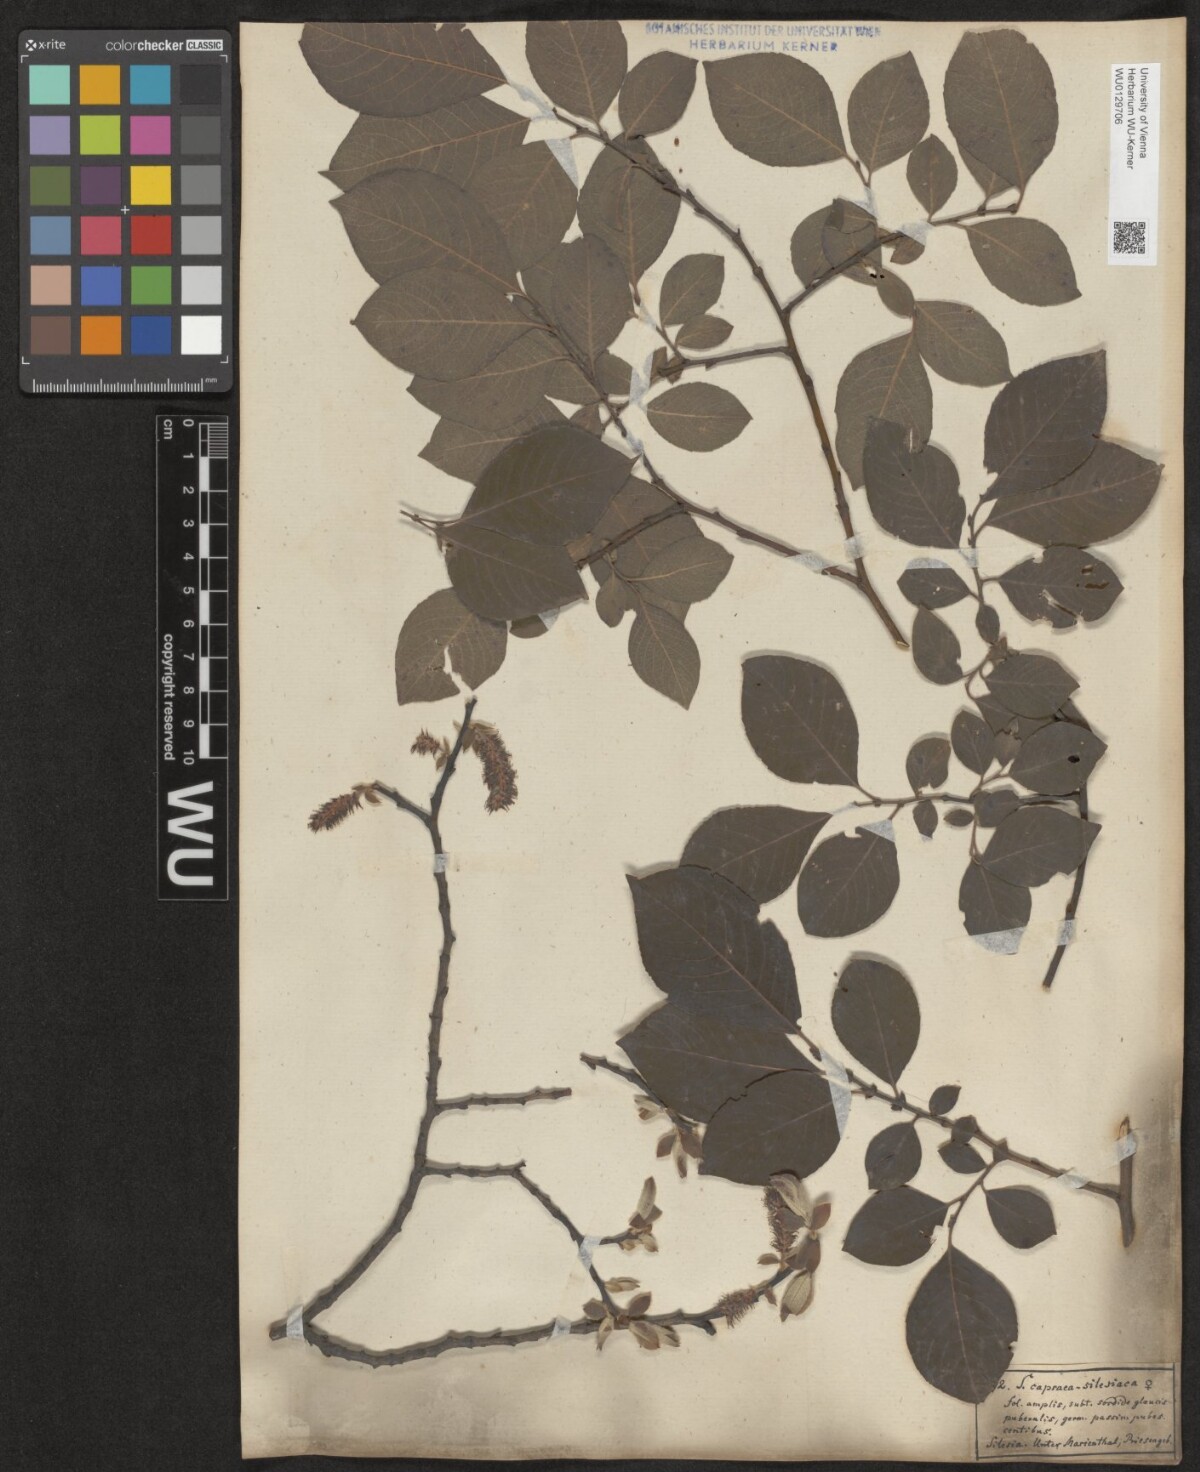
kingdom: Plantae
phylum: Tracheophyta
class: Magnoliopsida
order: Malpighiales
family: Salicaceae
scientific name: Salicaceae
